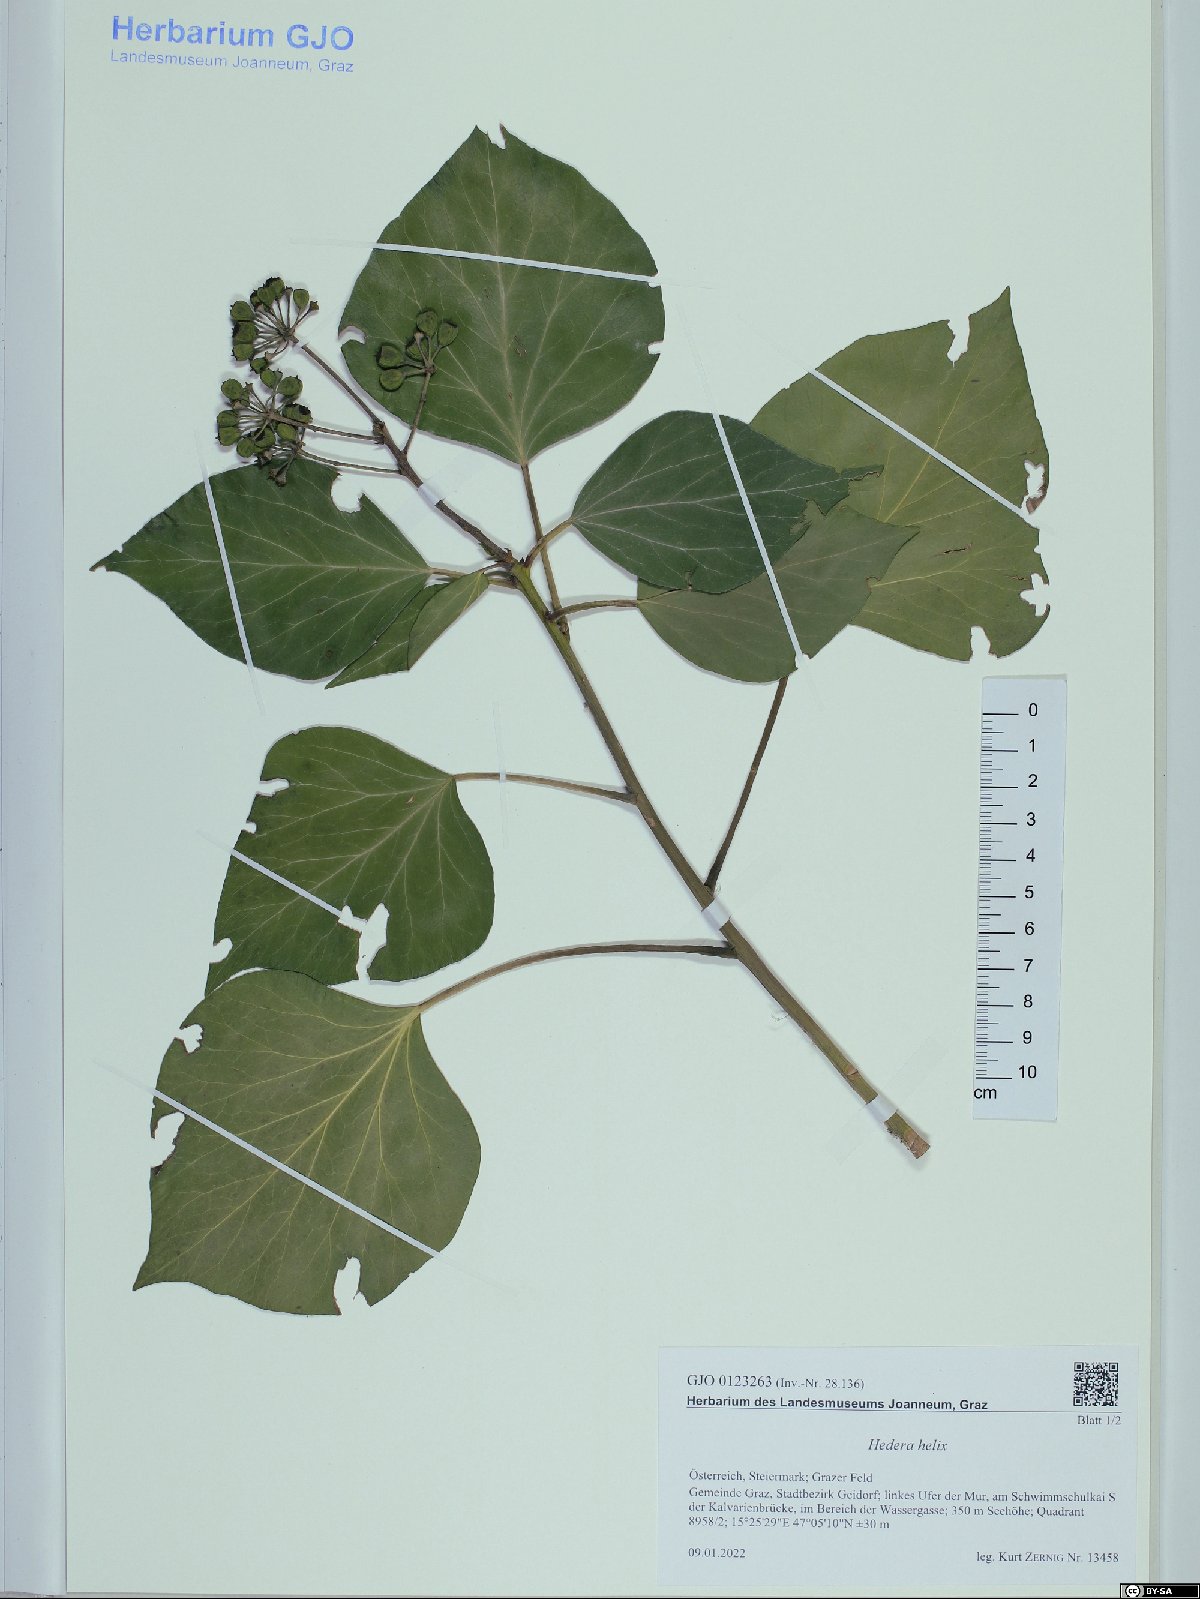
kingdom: Plantae
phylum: Tracheophyta
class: Magnoliopsida
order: Apiales
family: Araliaceae
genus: Hedera
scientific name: Hedera helix
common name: Ivy
